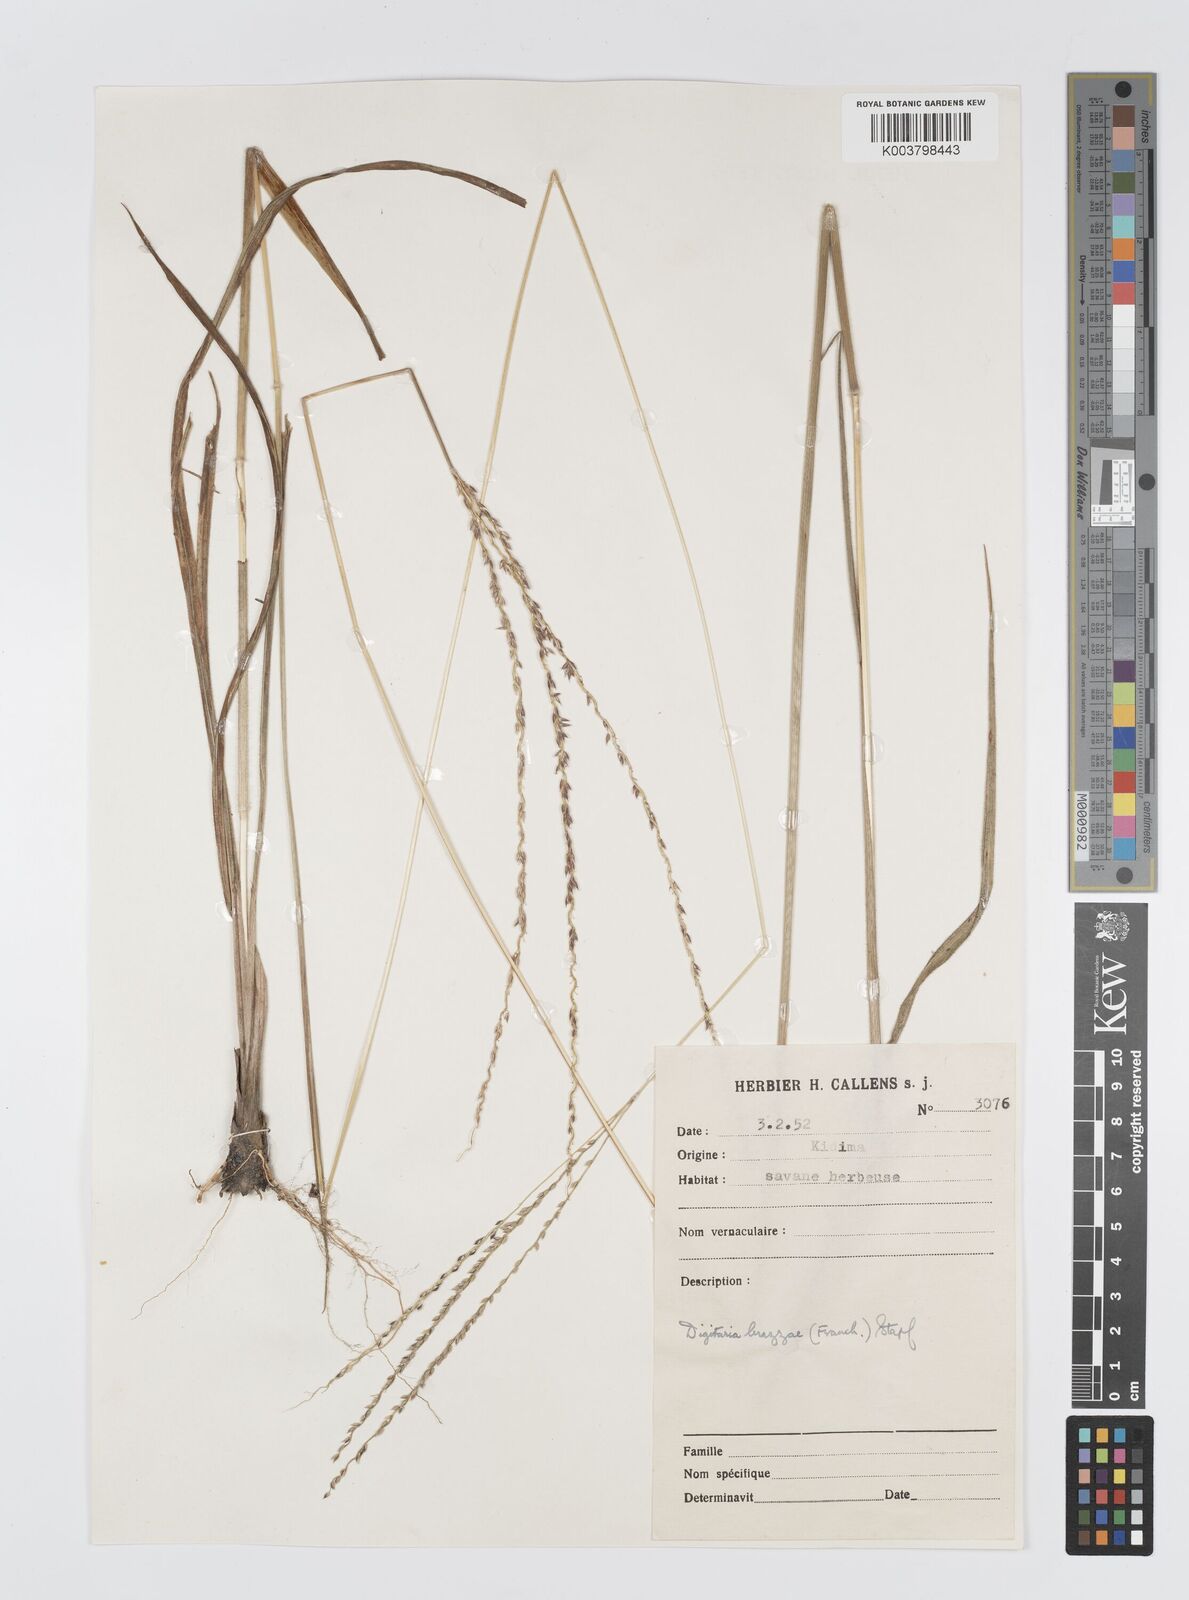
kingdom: Plantae
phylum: Tracheophyta
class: Liliopsida
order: Poales
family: Poaceae
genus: Digitaria
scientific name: Digitaria brazzae
